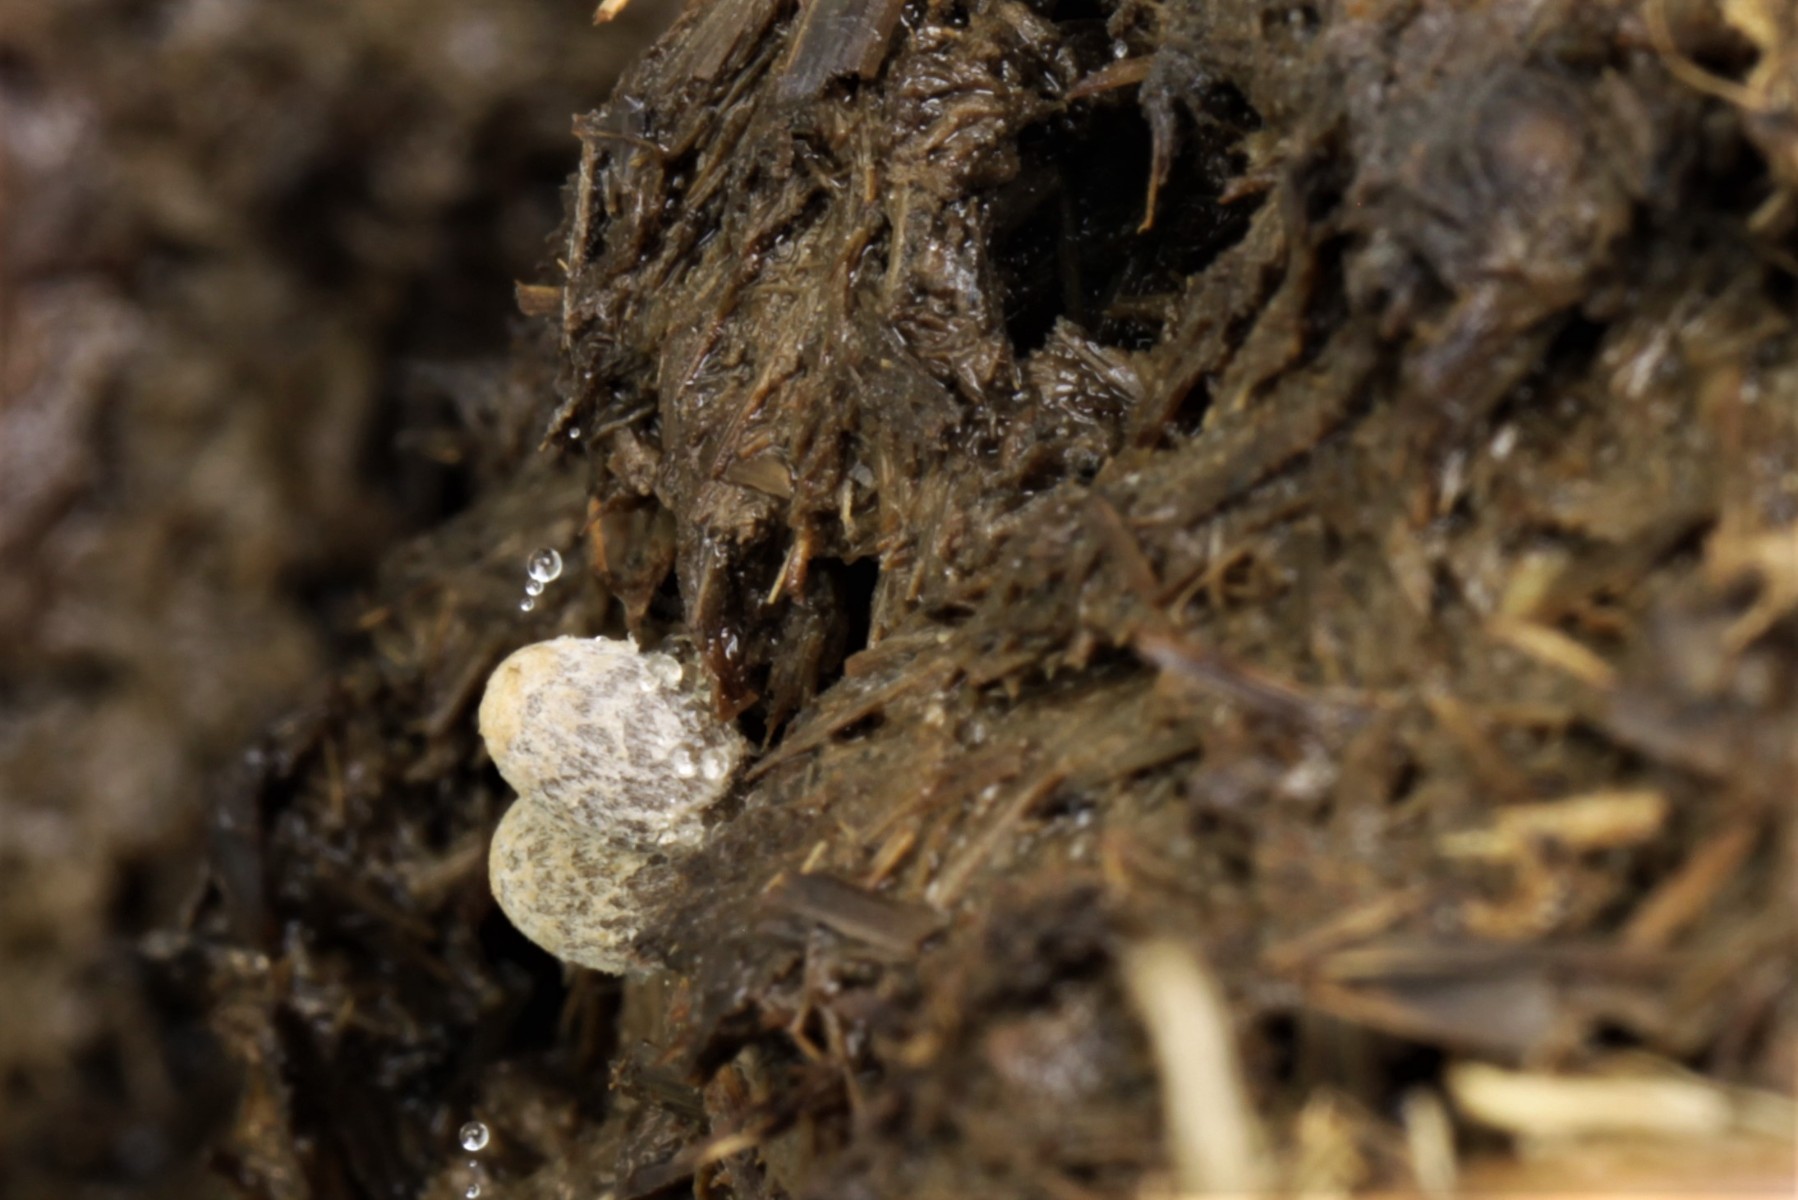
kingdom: Fungi
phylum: Basidiomycota
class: Agaricomycetes
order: Agaricales
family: Psathyrellaceae
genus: Coprinopsis
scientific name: Coprinopsis luteocephala
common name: gullig blækhat
